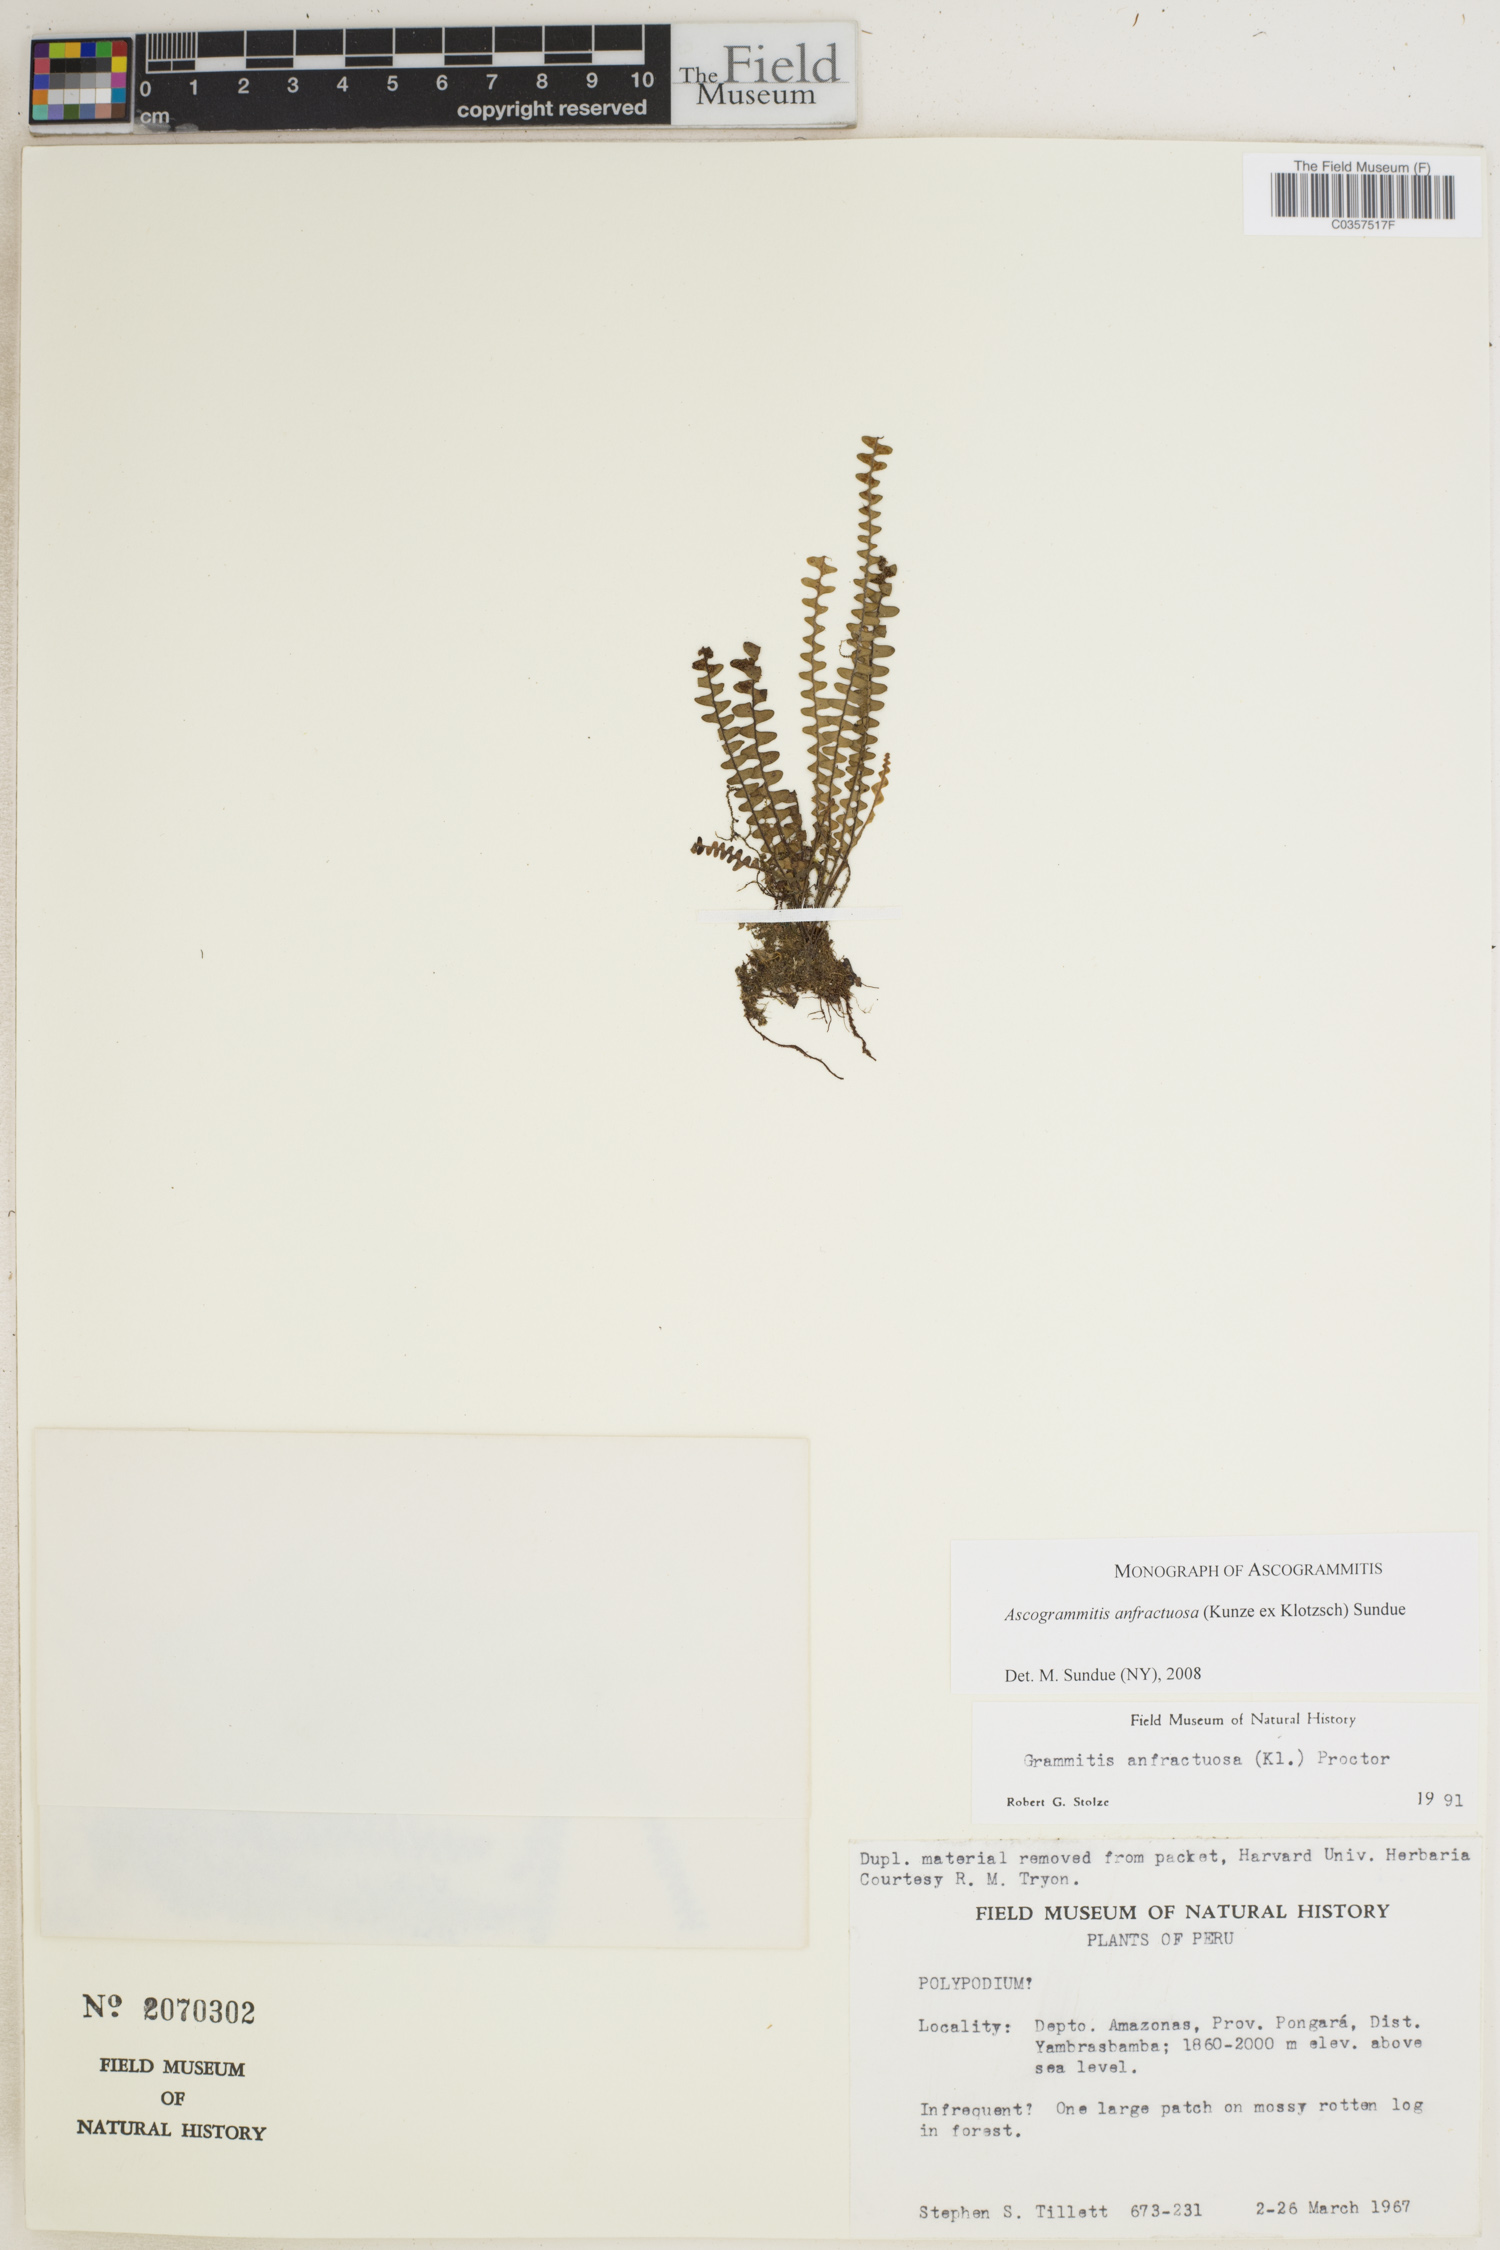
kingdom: Plantae
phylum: Tracheophyta
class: Polypodiopsida
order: Polypodiales
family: Polypodiaceae
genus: Ascogrammitis
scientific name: Ascogrammitis anfractuosa
